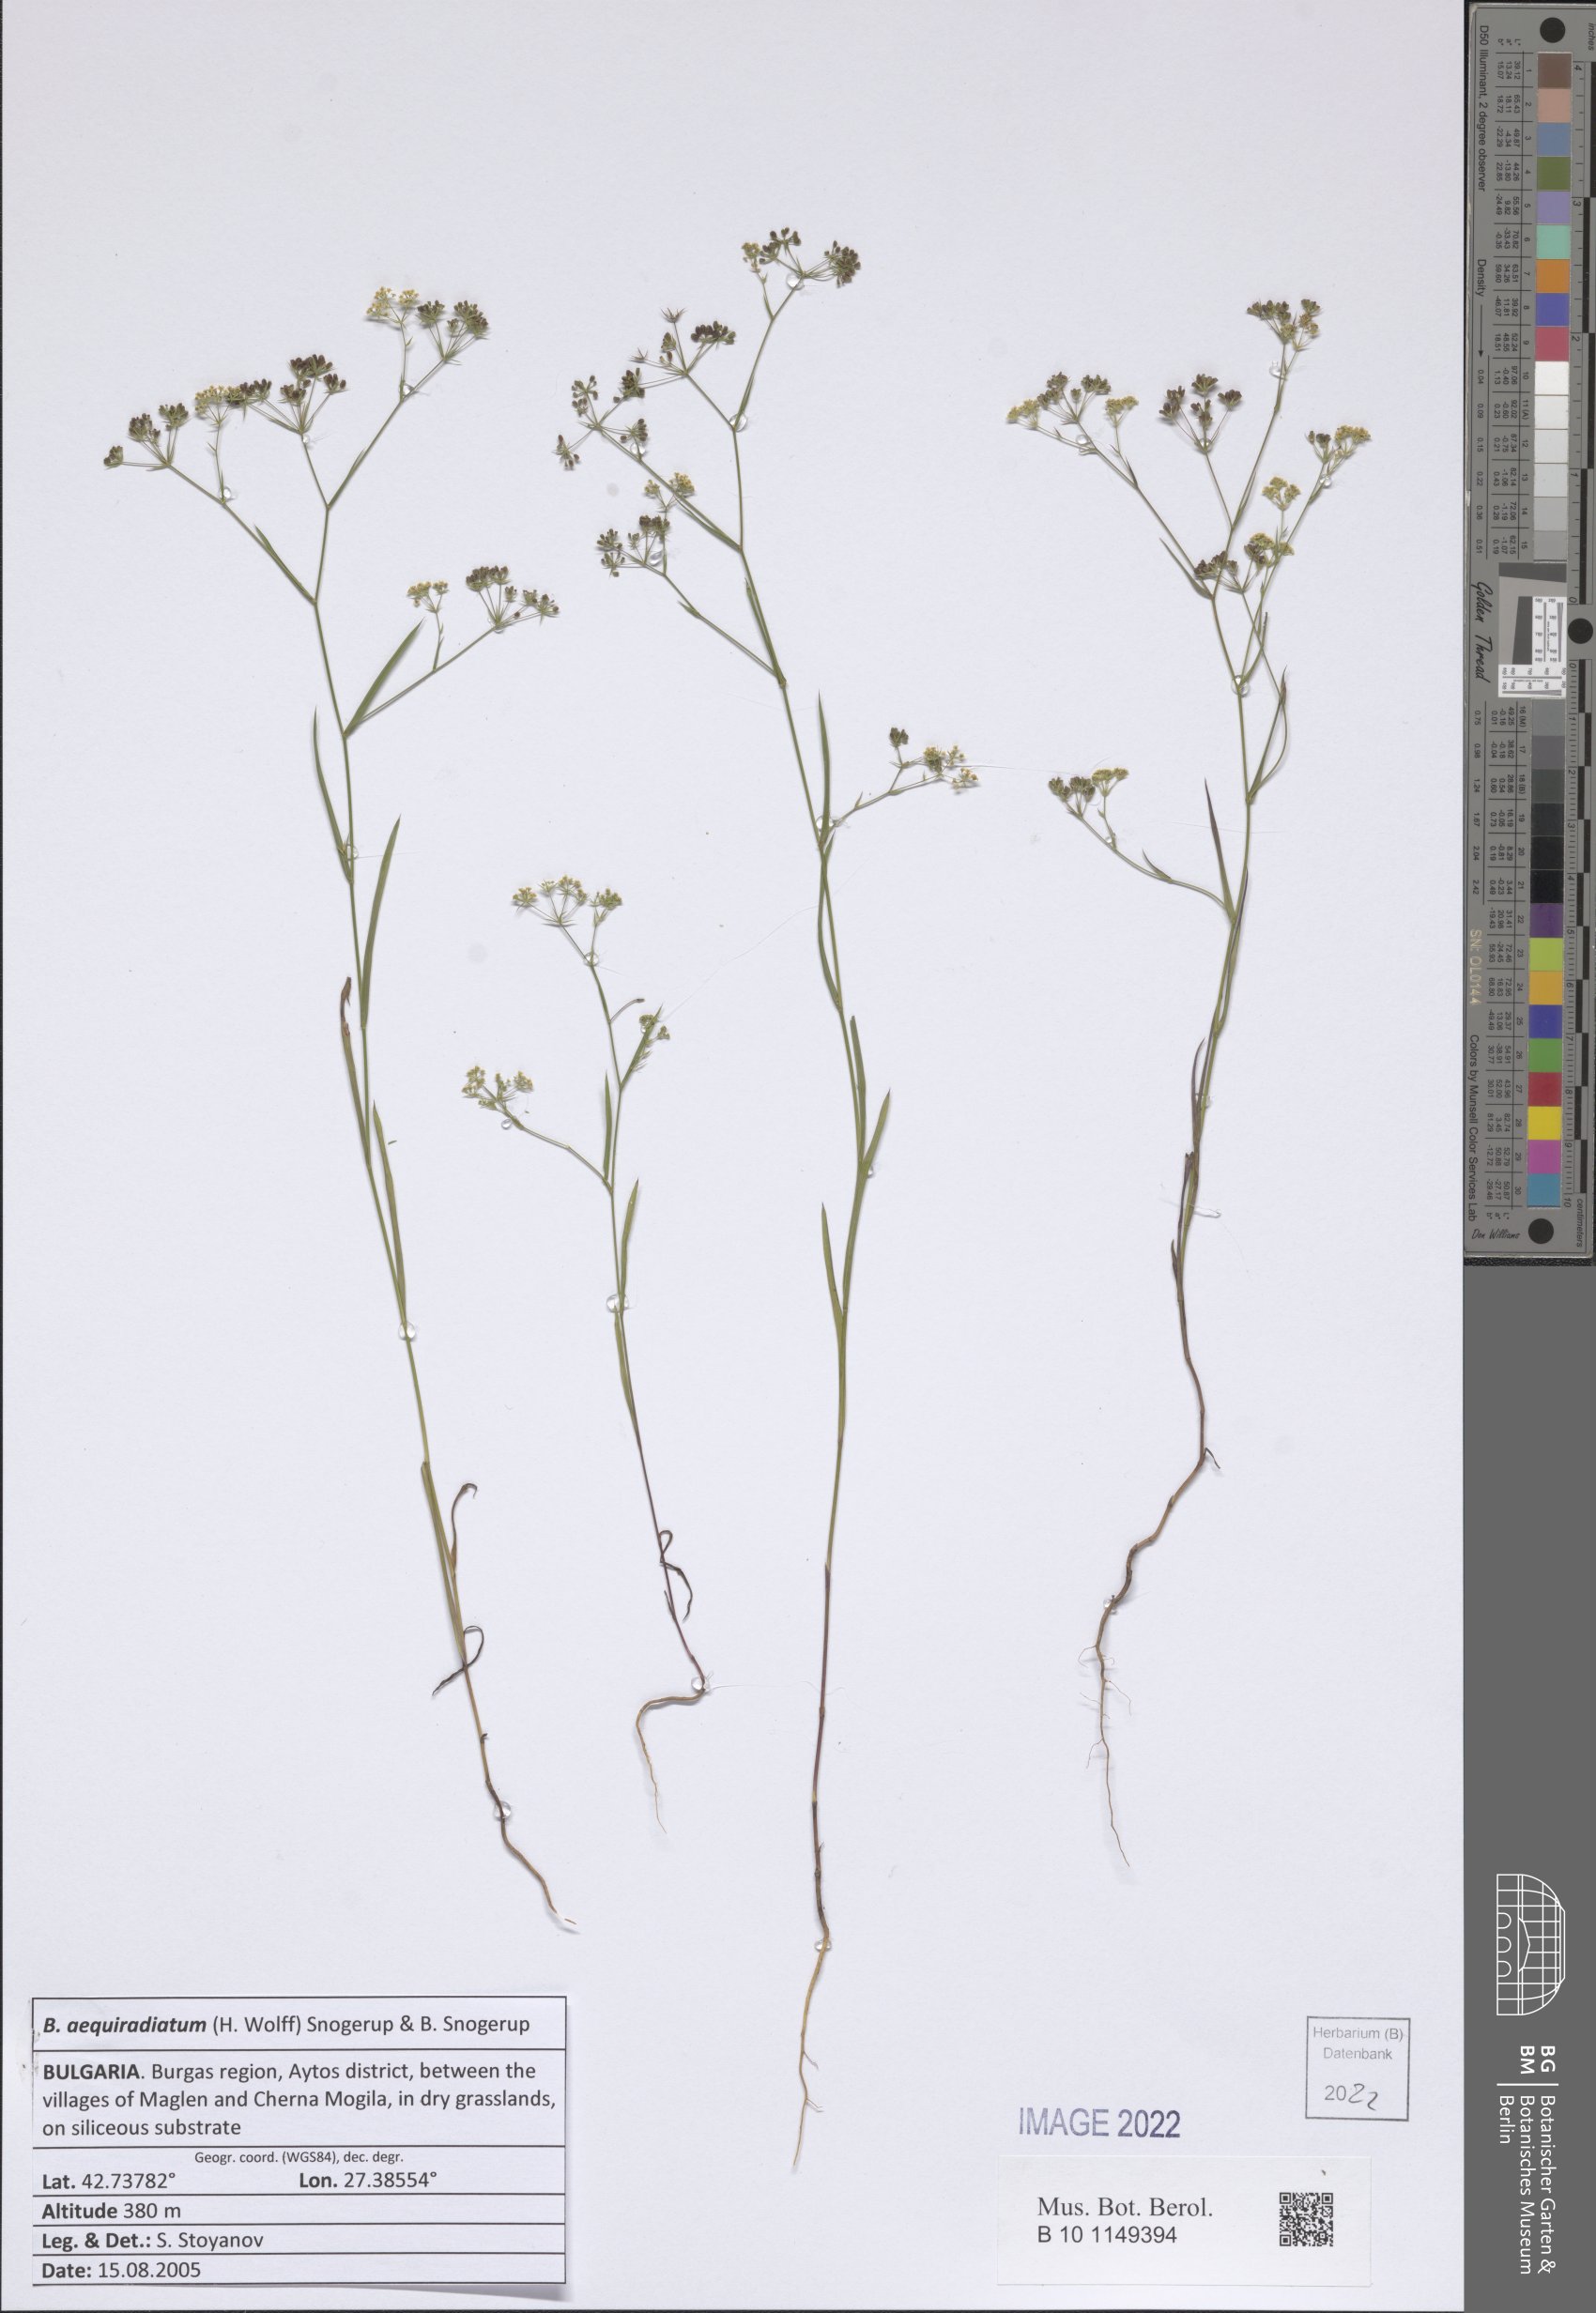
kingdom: Plantae
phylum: Tracheophyta
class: Magnoliopsida
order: Apiales
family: Apiaceae
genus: Bupleurum
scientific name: Bupleurum aequiradiatum
